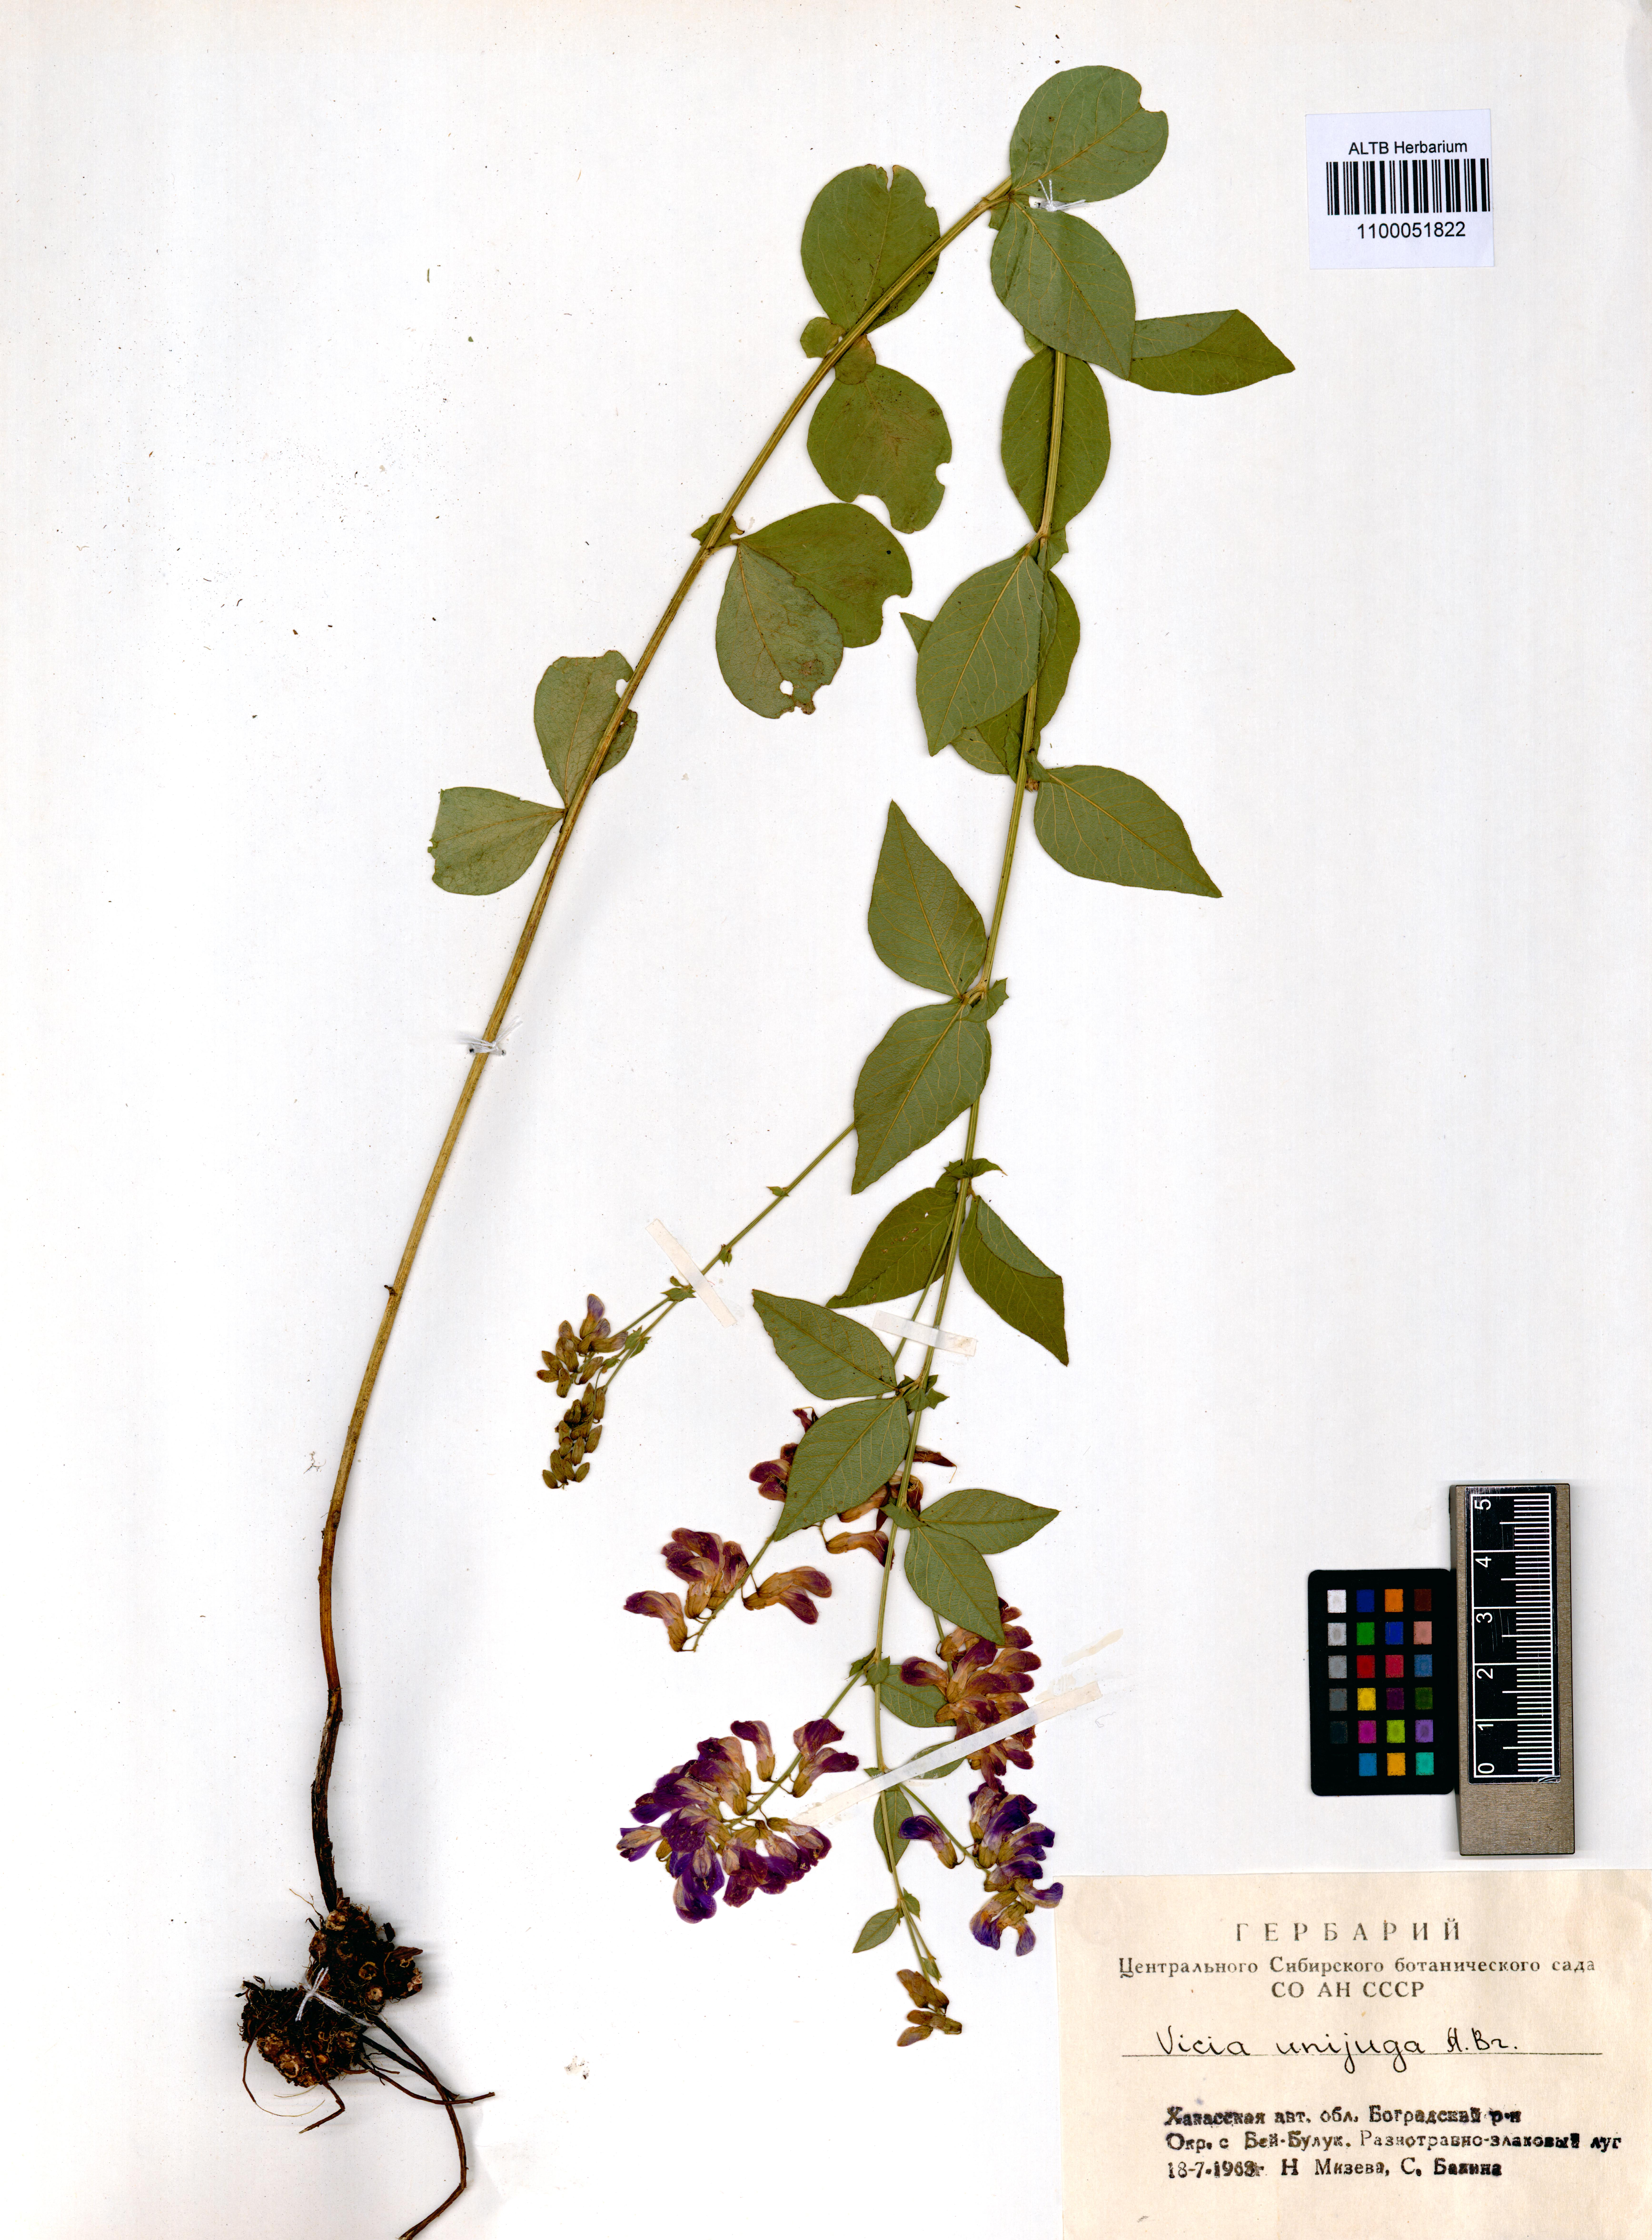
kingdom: Plantae
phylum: Tracheophyta
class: Magnoliopsida
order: Fabales
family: Fabaceae
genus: Vicia
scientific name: Vicia unijuga
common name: Two-leaf vetch
